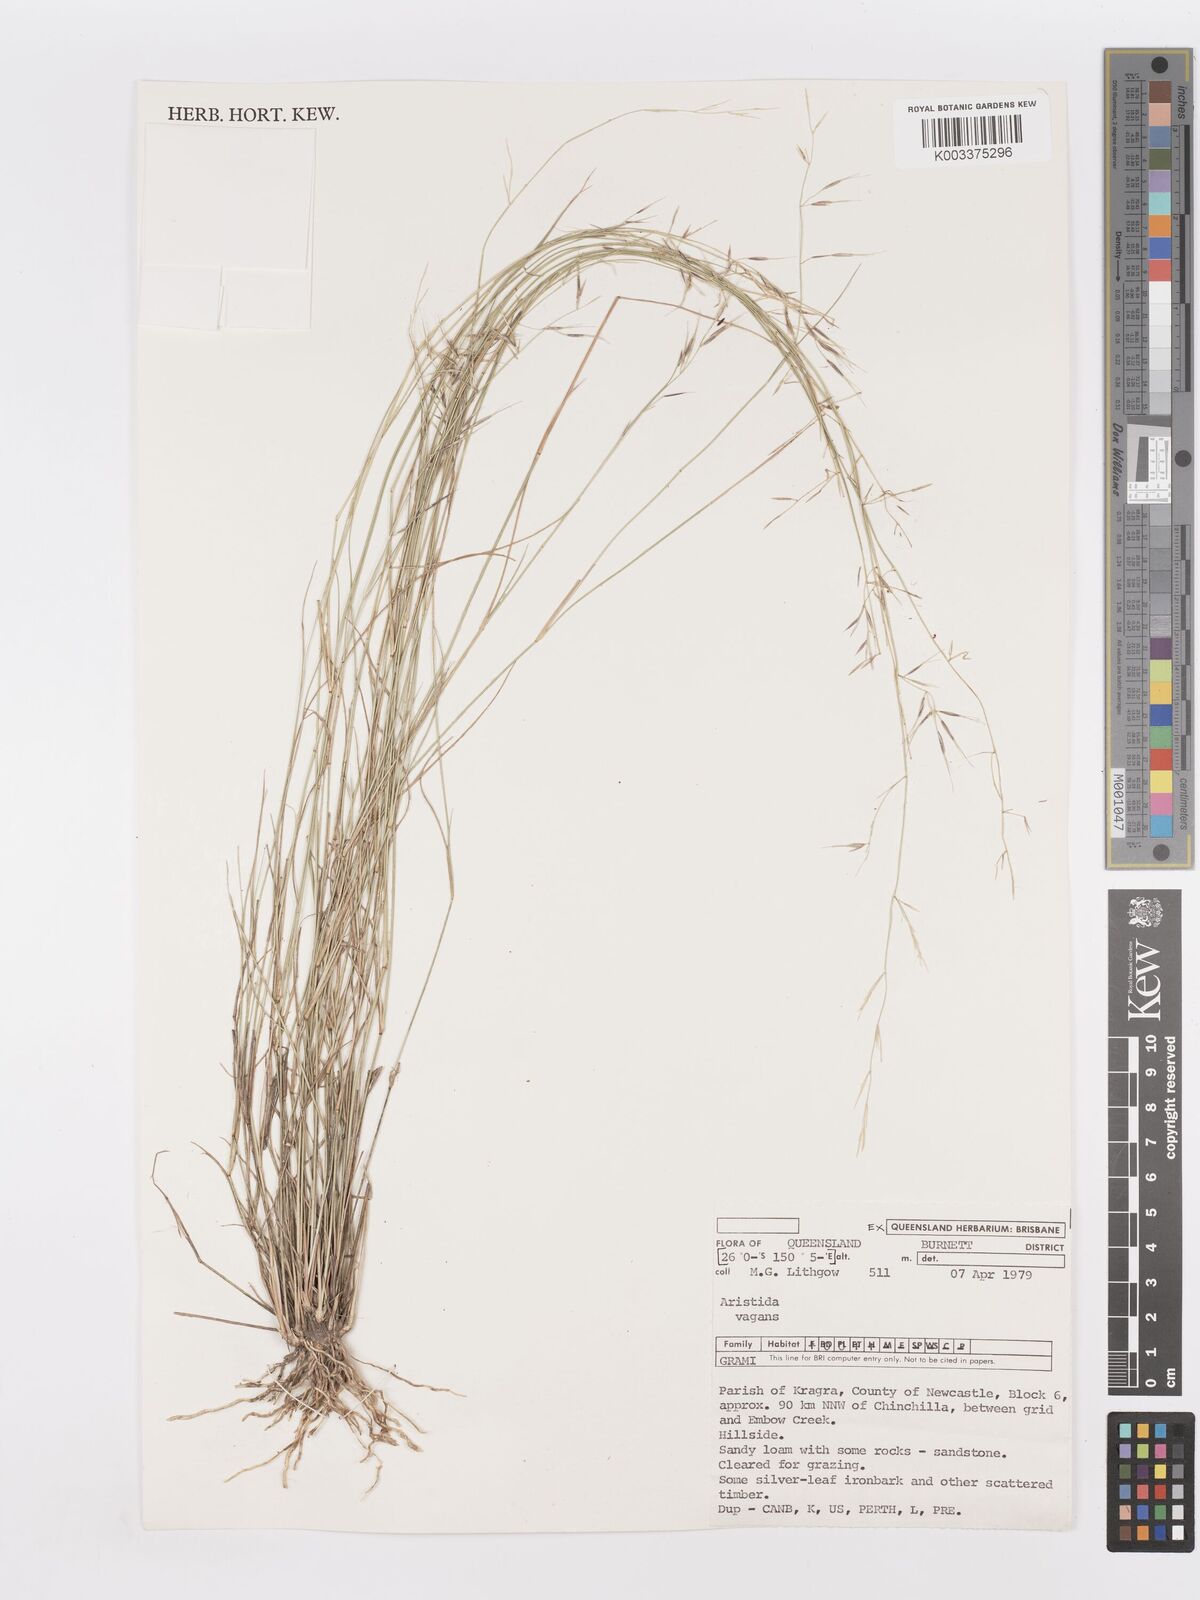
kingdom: Plantae
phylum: Tracheophyta
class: Liliopsida
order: Poales
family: Poaceae
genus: Aristida
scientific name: Aristida vagans
